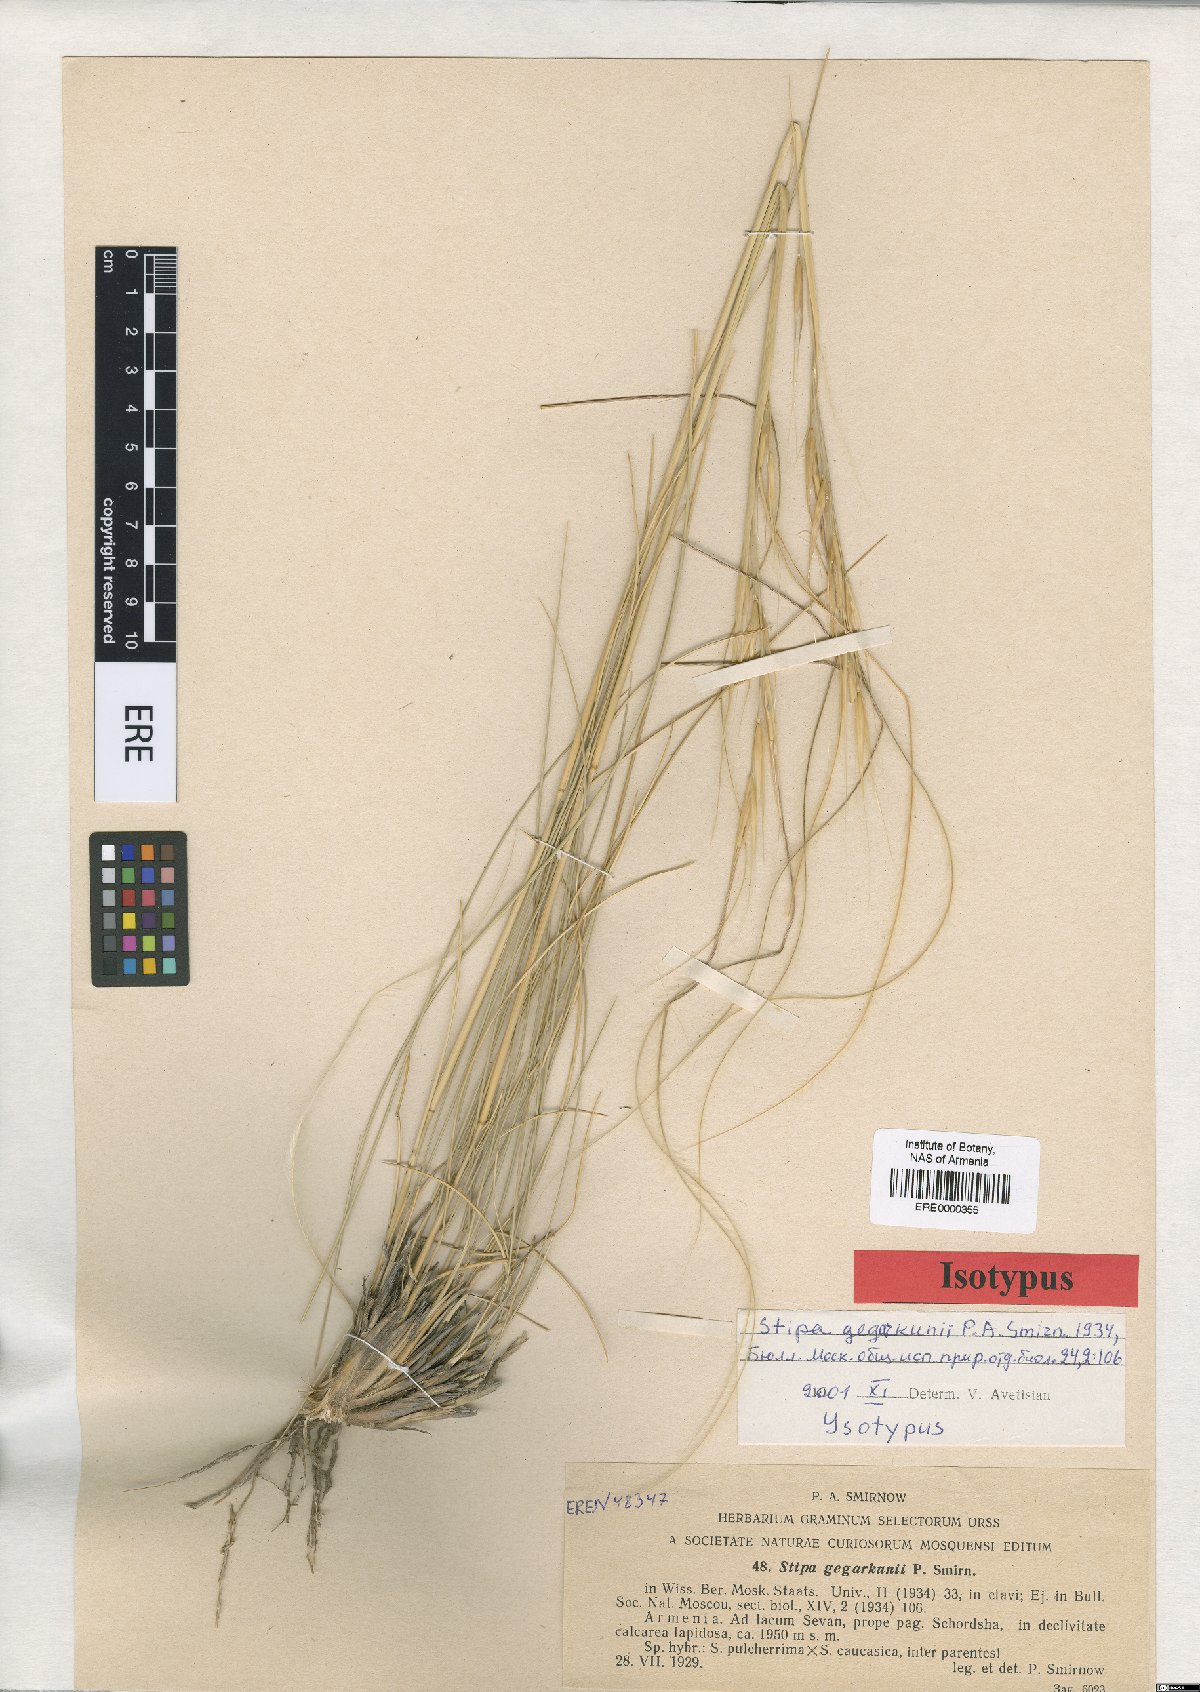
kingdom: Plantae
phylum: Tracheophyta
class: Liliopsida
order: Poales
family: Poaceae
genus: Stipa
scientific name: Stipa gegarkunii
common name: Gegarkunian feather-grass
